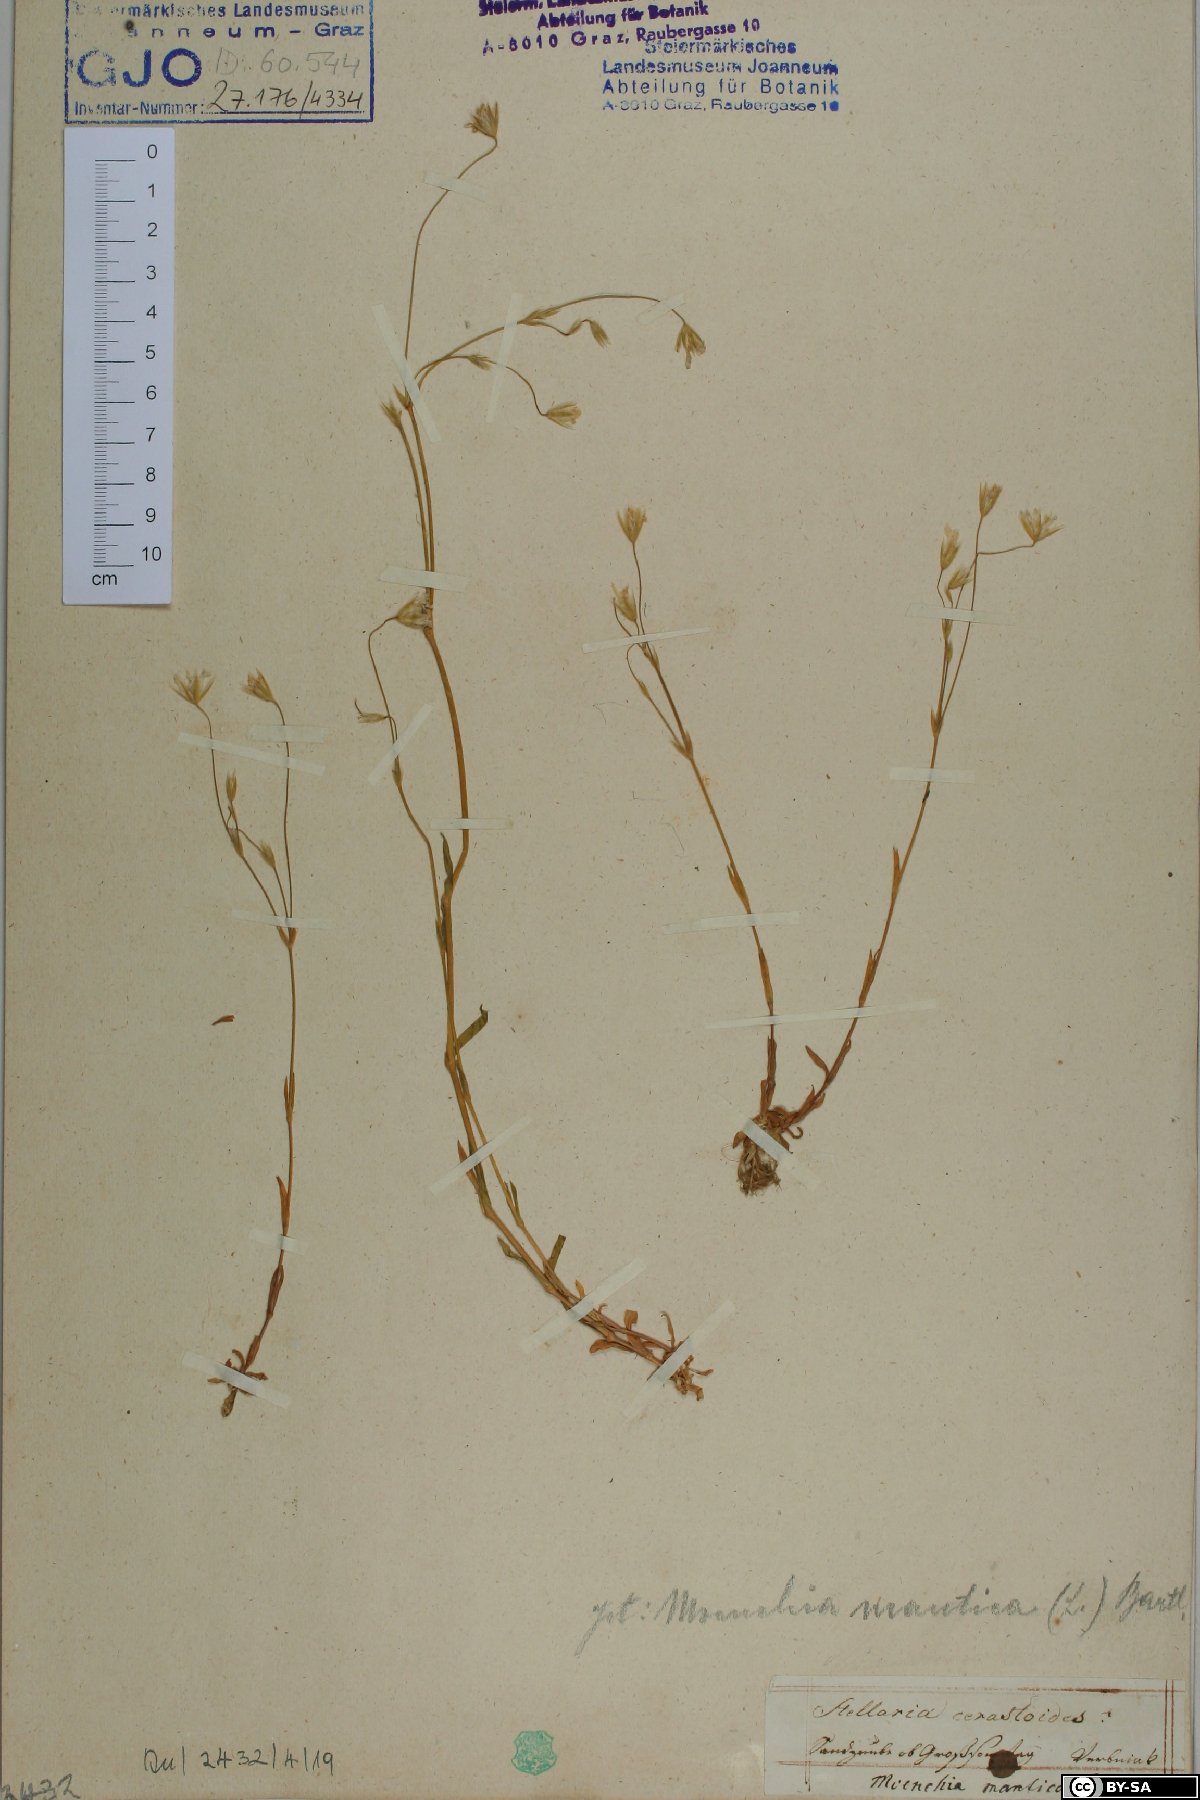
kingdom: Plantae
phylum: Tracheophyta
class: Magnoliopsida
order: Caryophyllales
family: Caryophyllaceae
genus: Moenchia
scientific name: Moenchia mantica
